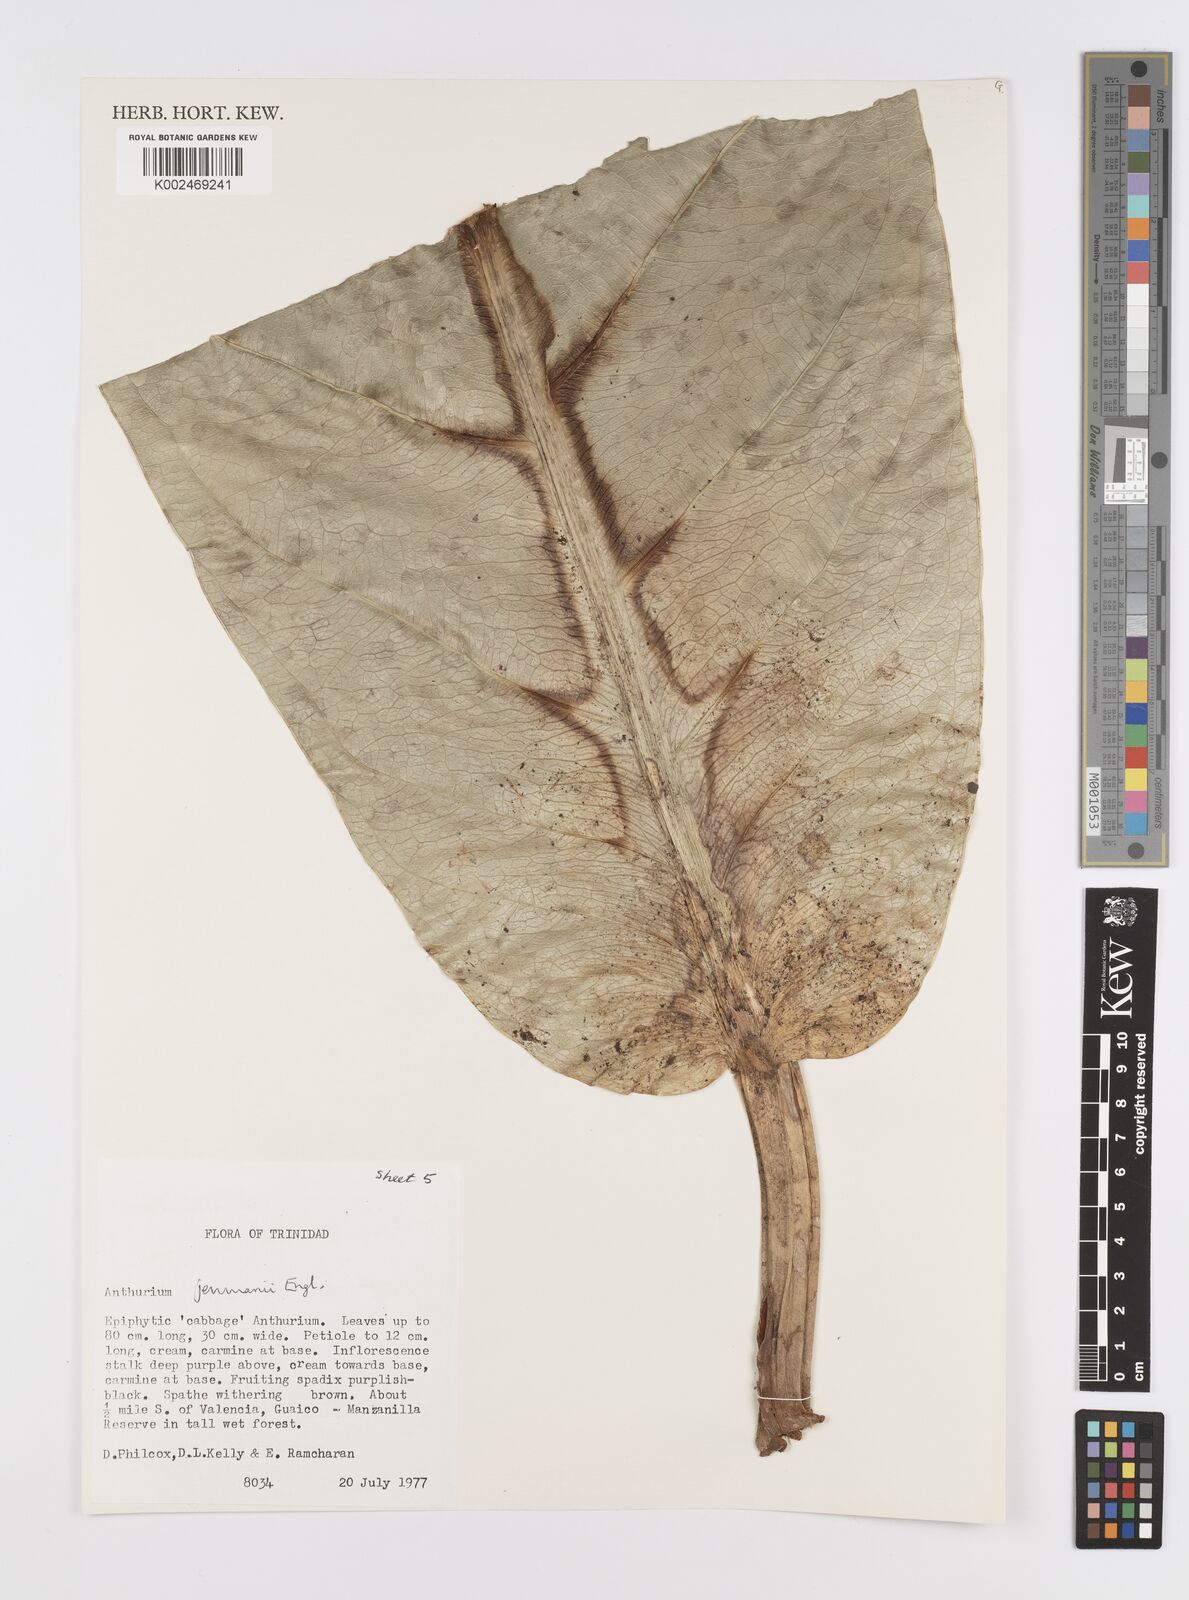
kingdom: Plantae
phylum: Tracheophyta
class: Liliopsida
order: Alismatales
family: Araceae
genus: Anthurium
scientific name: Anthurium jenmanii
